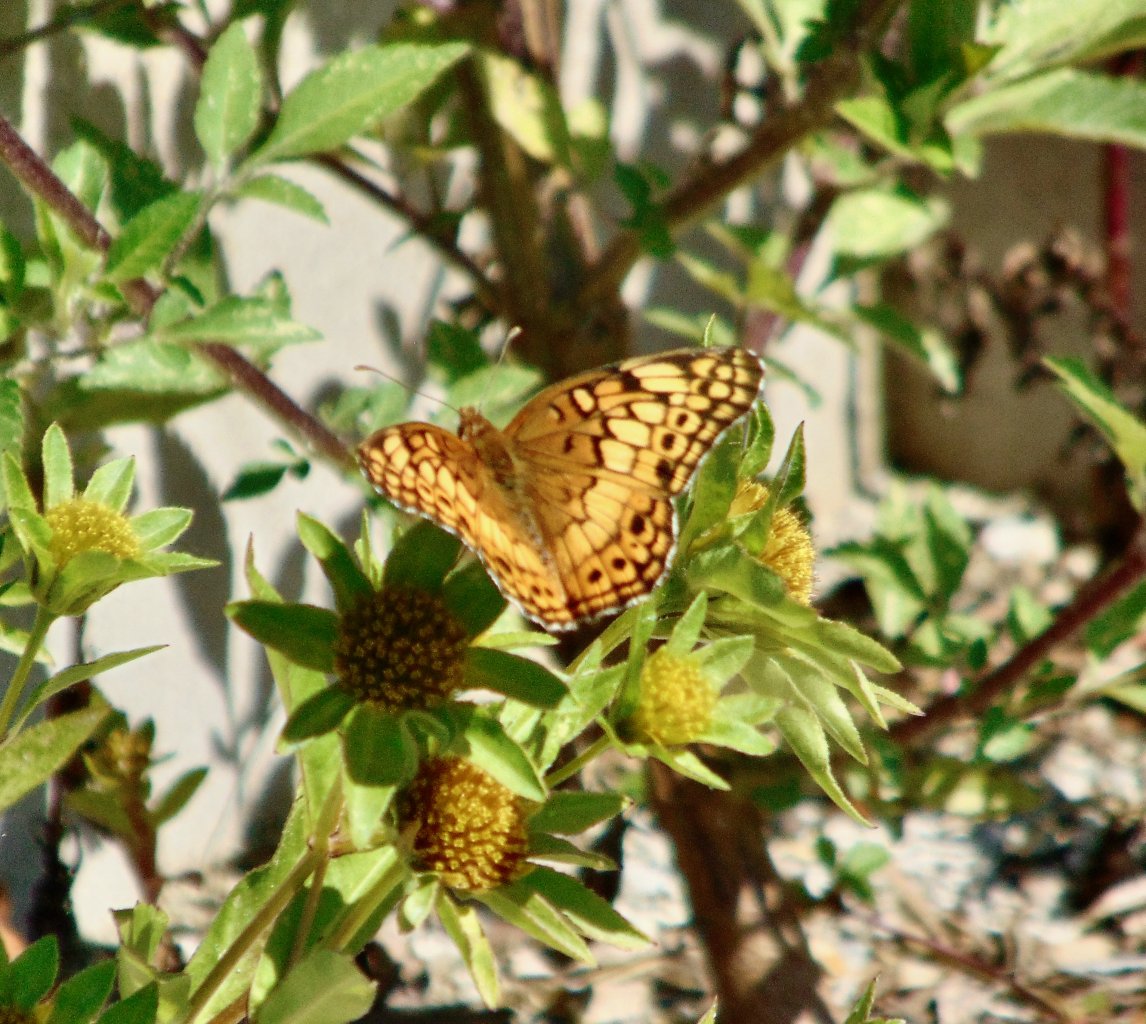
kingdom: Animalia
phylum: Arthropoda
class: Insecta
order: Lepidoptera
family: Nymphalidae
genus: Euptoieta
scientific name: Euptoieta claudia
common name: Variegated Fritillary
